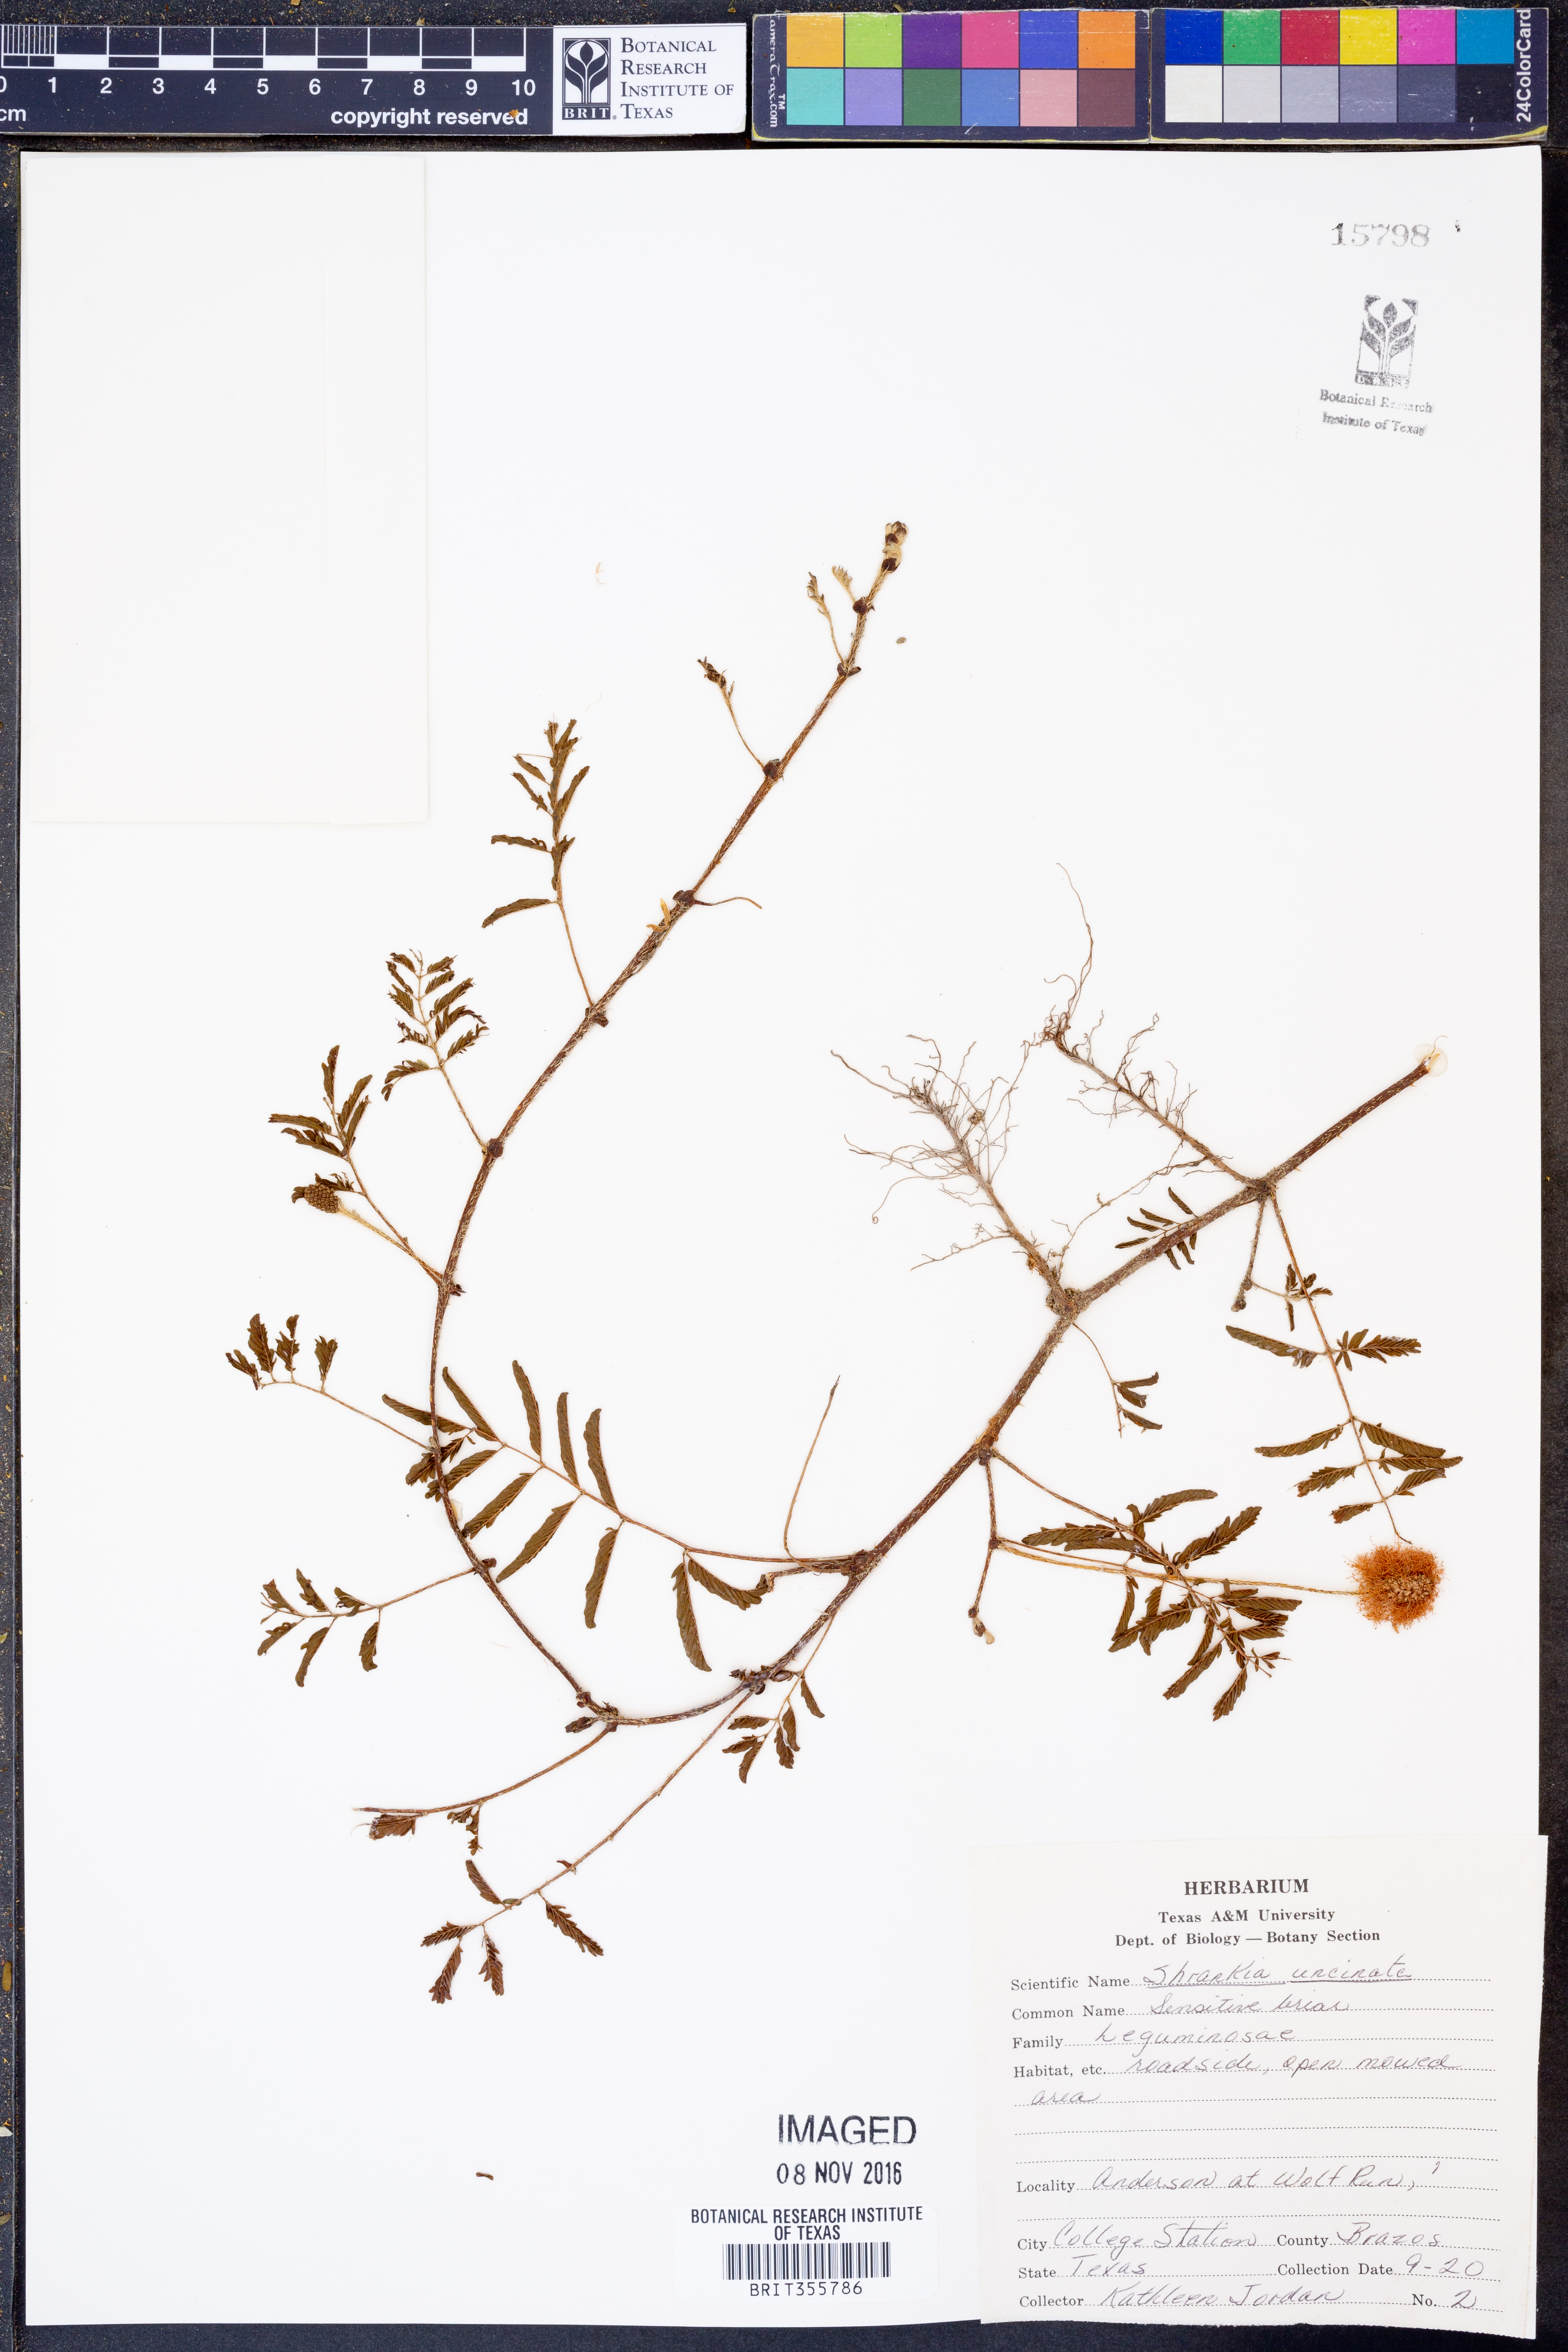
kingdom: Plantae
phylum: Tracheophyta
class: Magnoliopsida
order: Fabales
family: Fabaceae
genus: Mimosa
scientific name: Mimosa quadrivalvis
